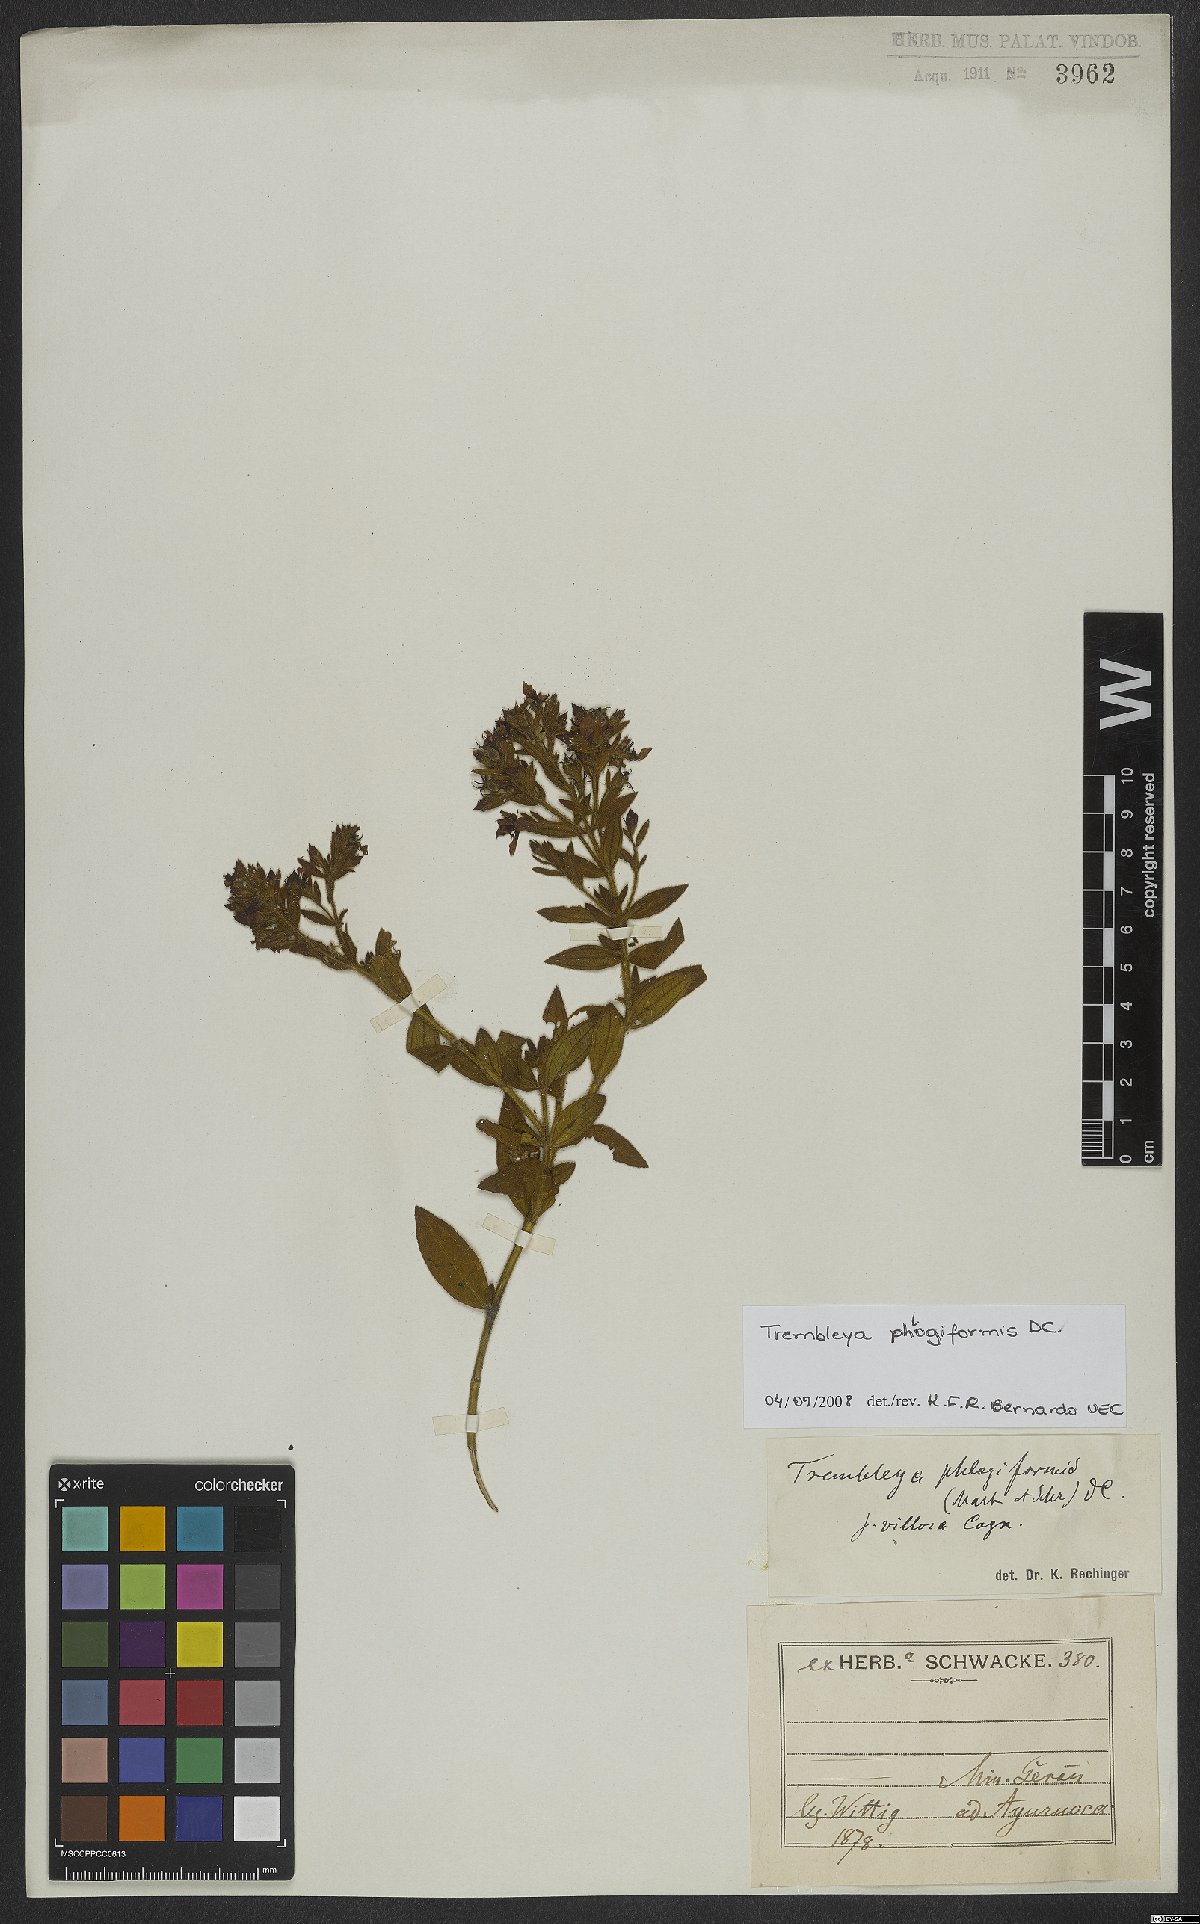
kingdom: Plantae
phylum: Tracheophyta
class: Magnoliopsida
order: Myrtales
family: Melastomataceae
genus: Microlicia
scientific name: Microlicia phlogiformis
